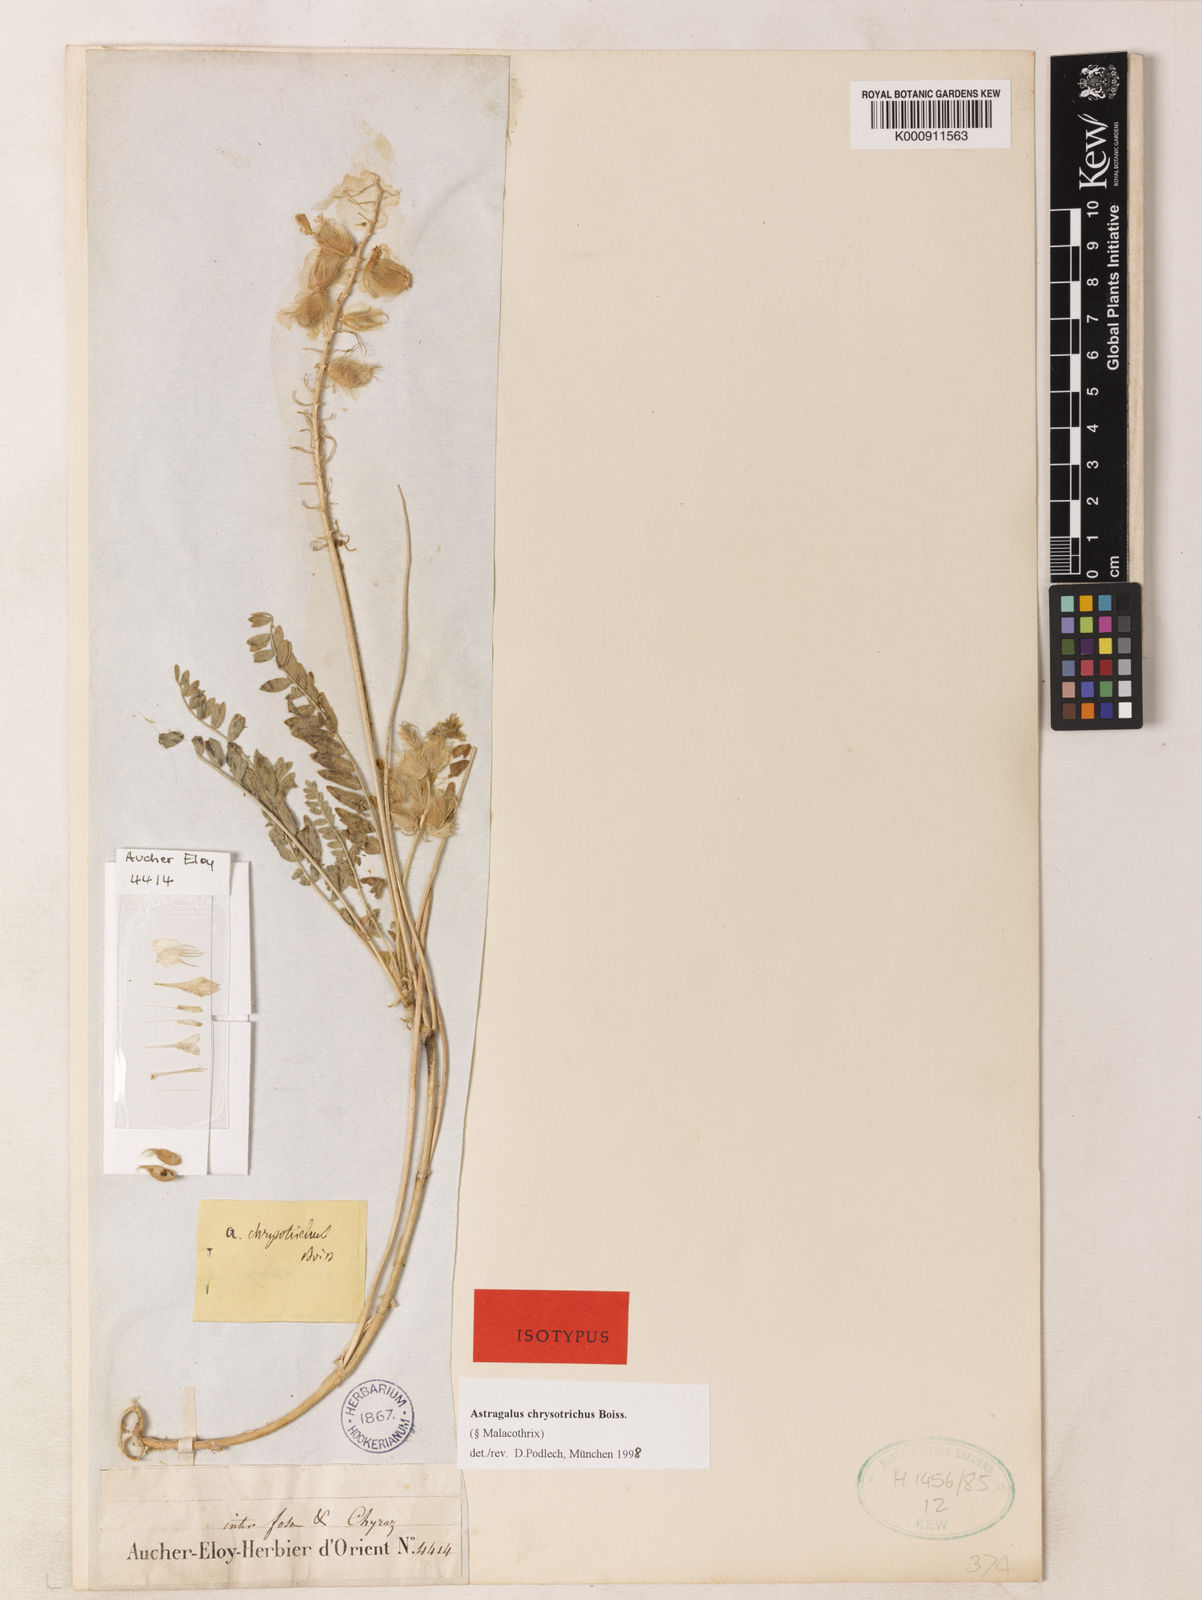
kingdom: Plantae
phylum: Tracheophyta
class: Magnoliopsida
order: Fabales
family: Fabaceae
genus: Astragalus
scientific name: Astragalus chrysotrichus
